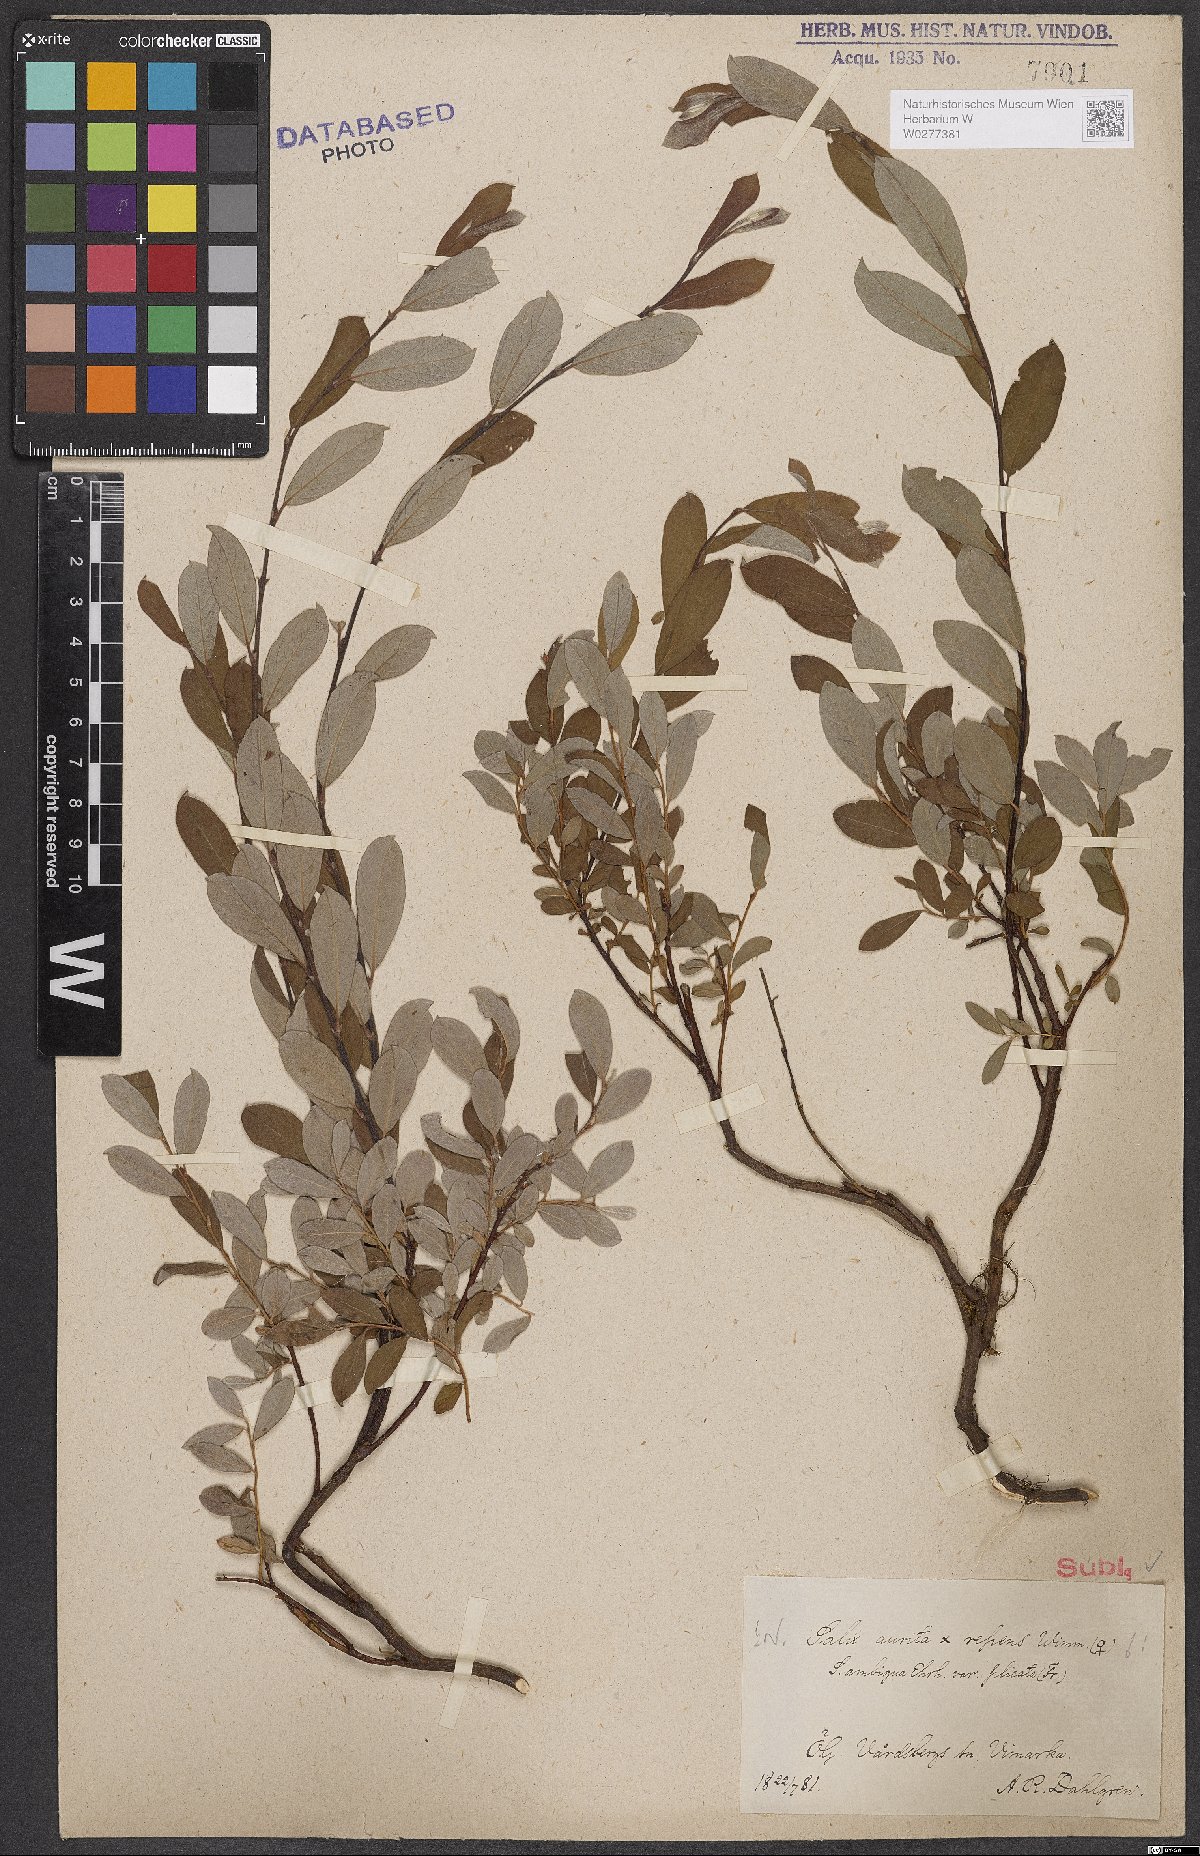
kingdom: Plantae
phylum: Tracheophyta
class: Magnoliopsida
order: Malpighiales
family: Salicaceae
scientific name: Salicaceae
